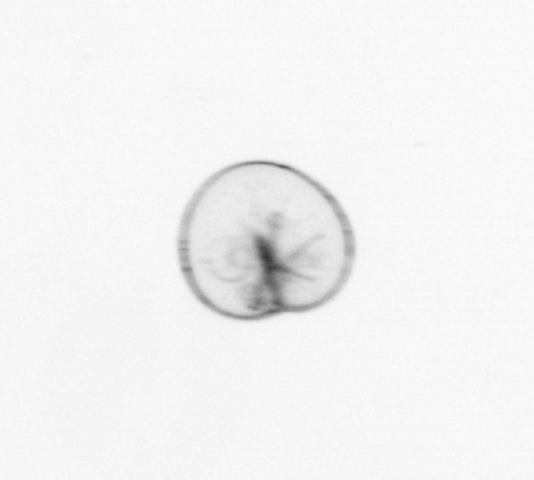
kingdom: Chromista
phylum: Myzozoa
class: Dinophyceae
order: Noctilucales
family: Noctilucaceae
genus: Noctiluca
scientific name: Noctiluca scintillans
